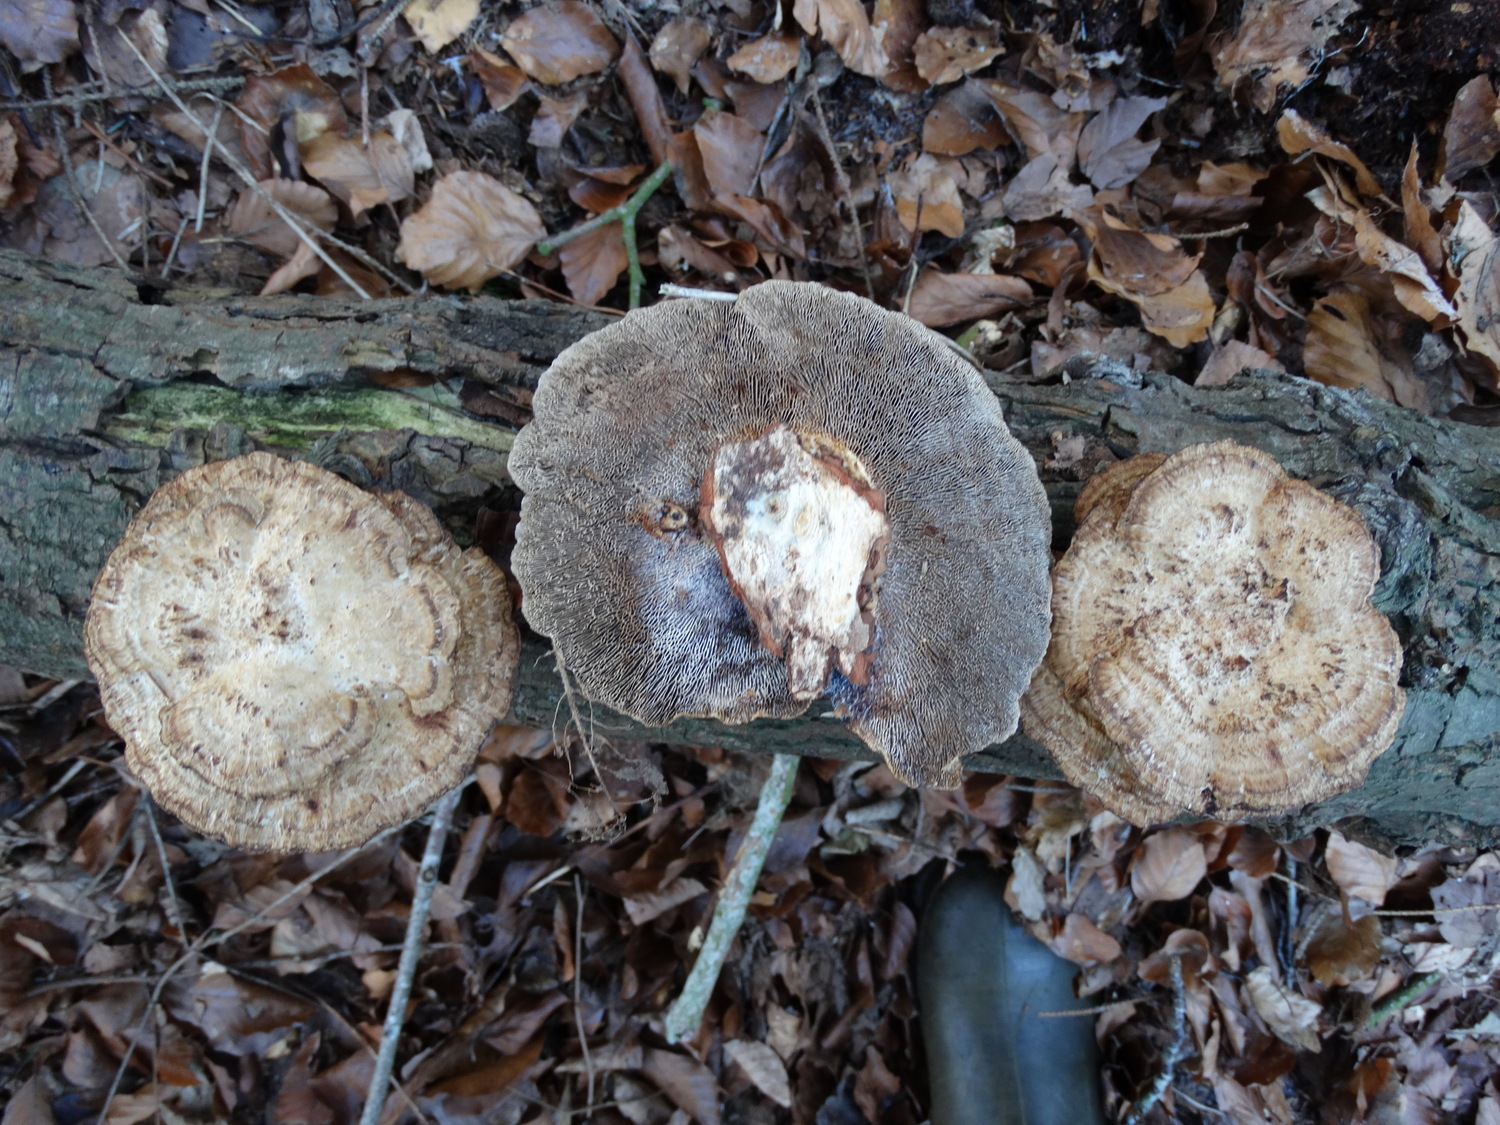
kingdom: Fungi
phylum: Basidiomycota
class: Agaricomycetes
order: Polyporales
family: Polyporaceae
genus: Daedaleopsis
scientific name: Daedaleopsis confragosa
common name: rødmende læderporesvamp
